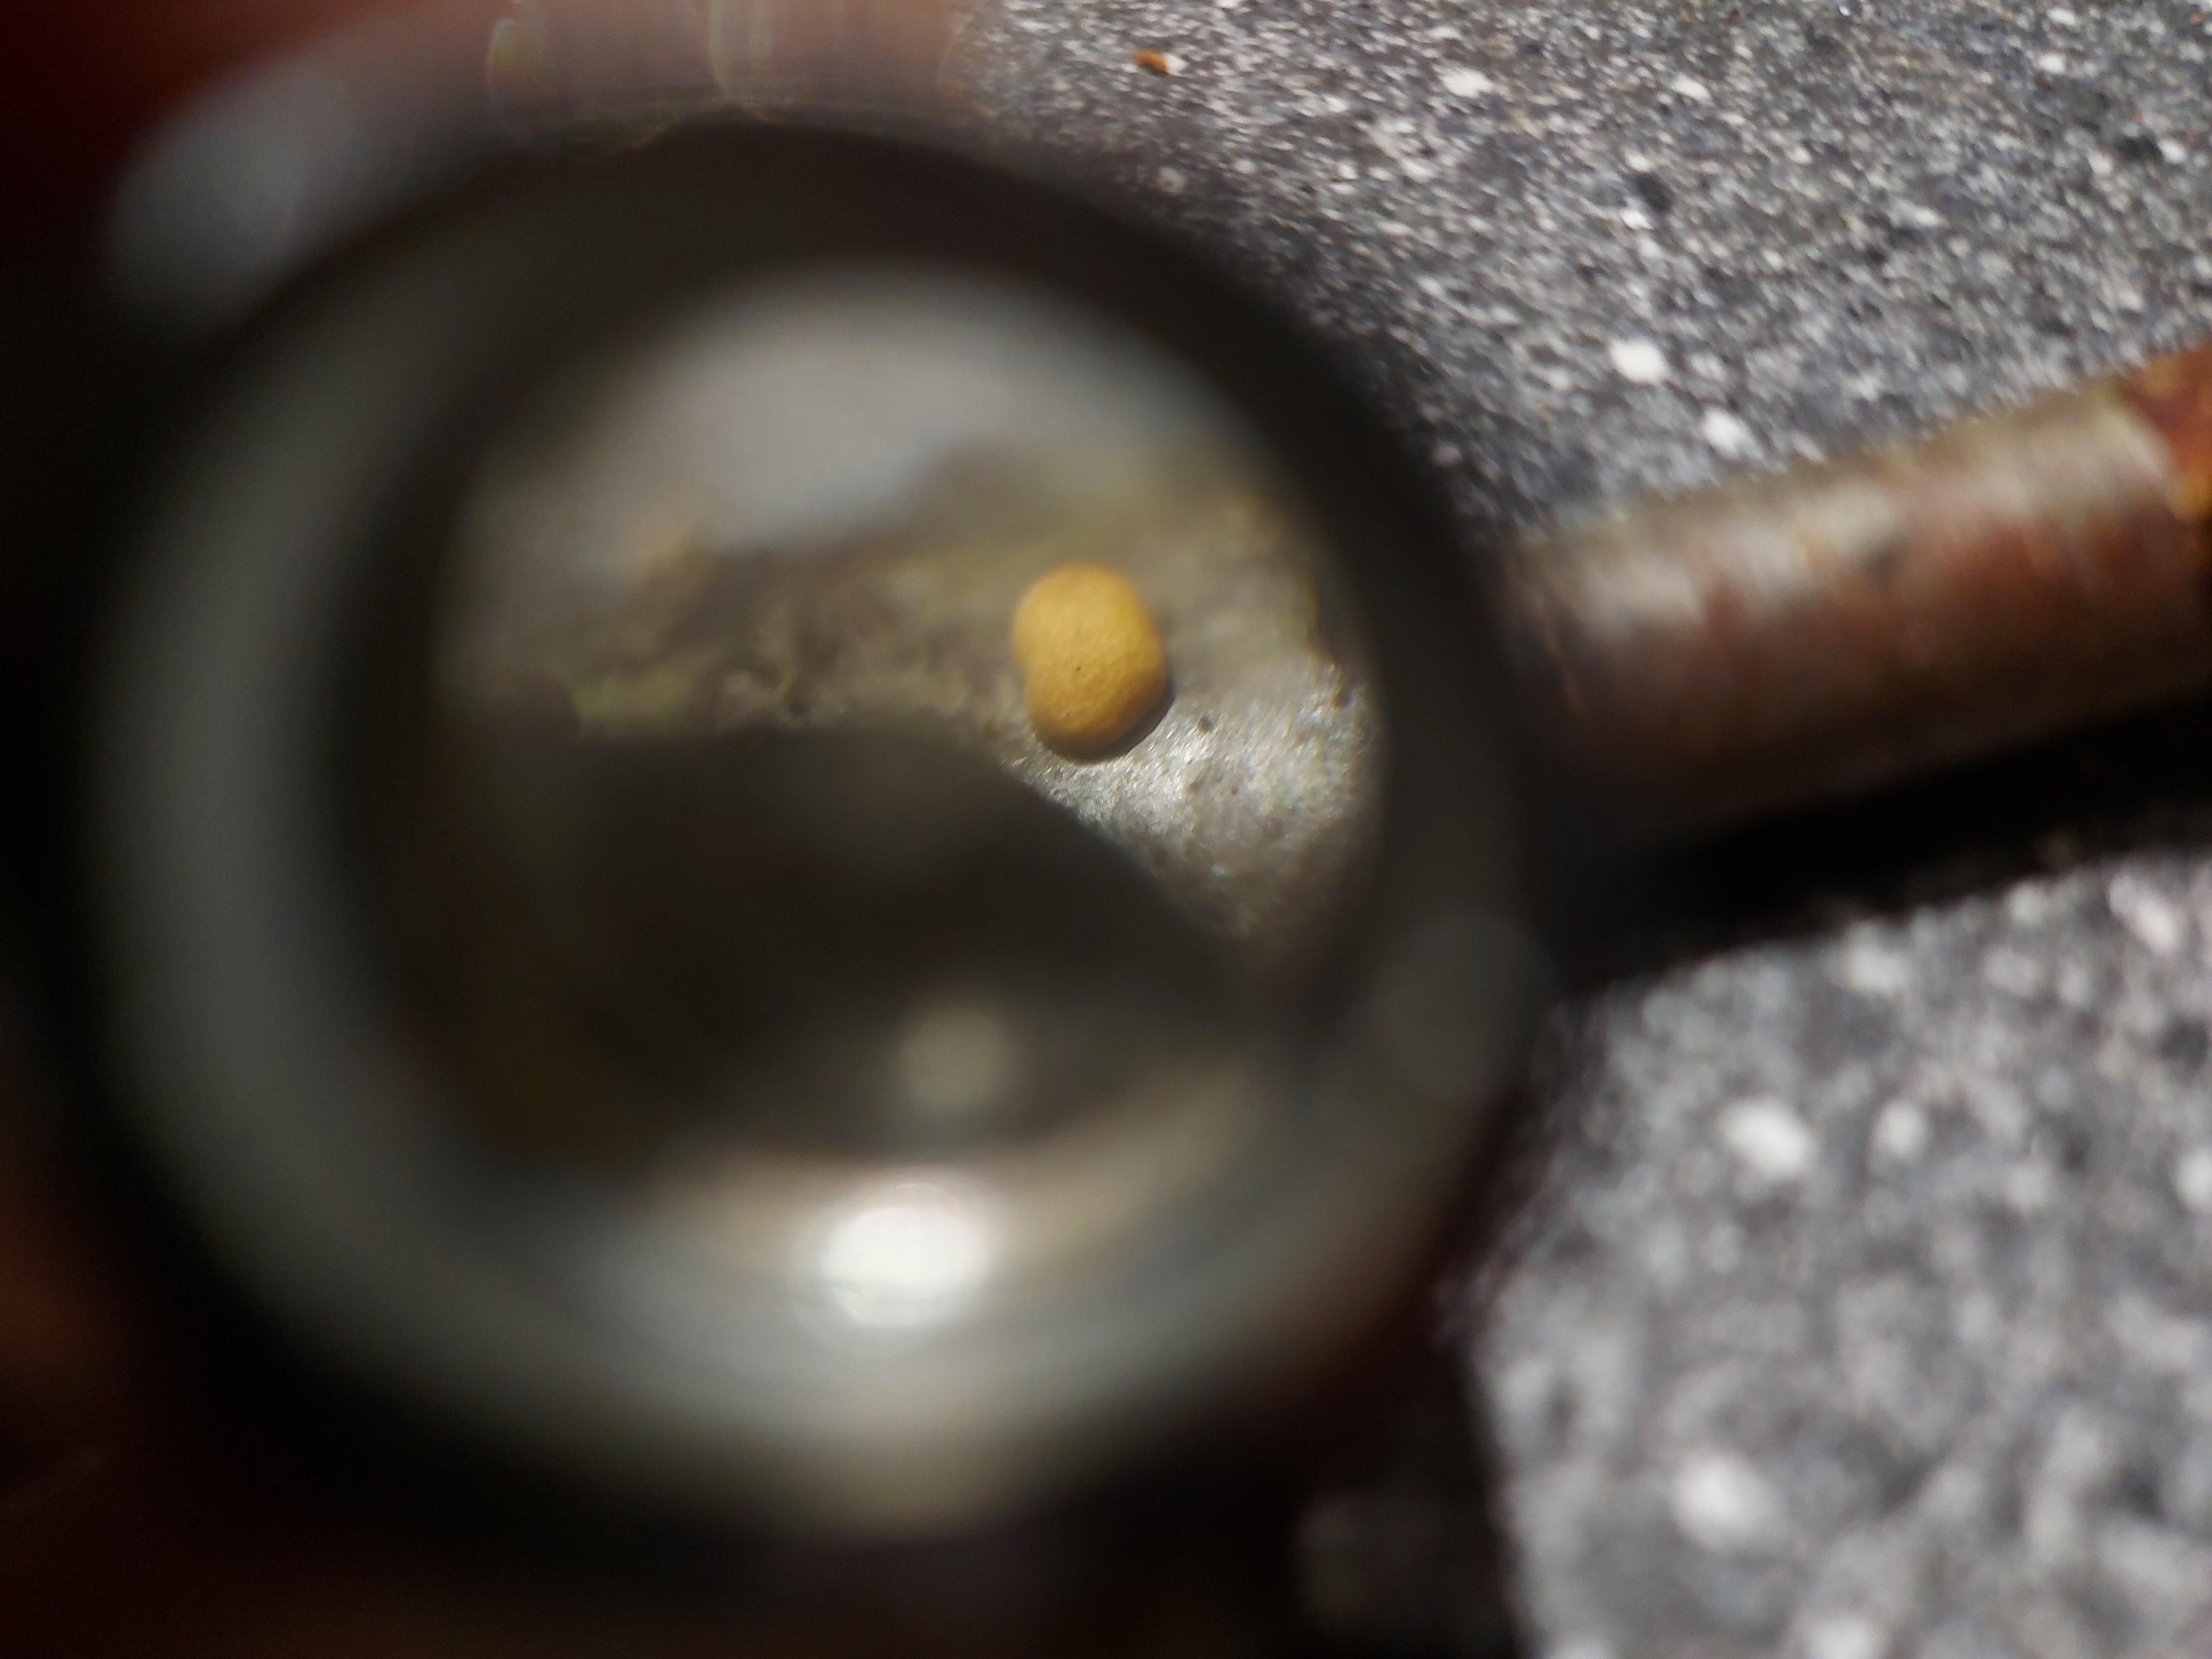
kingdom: Fungi
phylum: Ascomycota
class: Sordariomycetes
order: Hypocreales
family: Hypocreaceae
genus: Trichoderma
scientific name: Trichoderma bavaricum
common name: bayersk kødkerne
